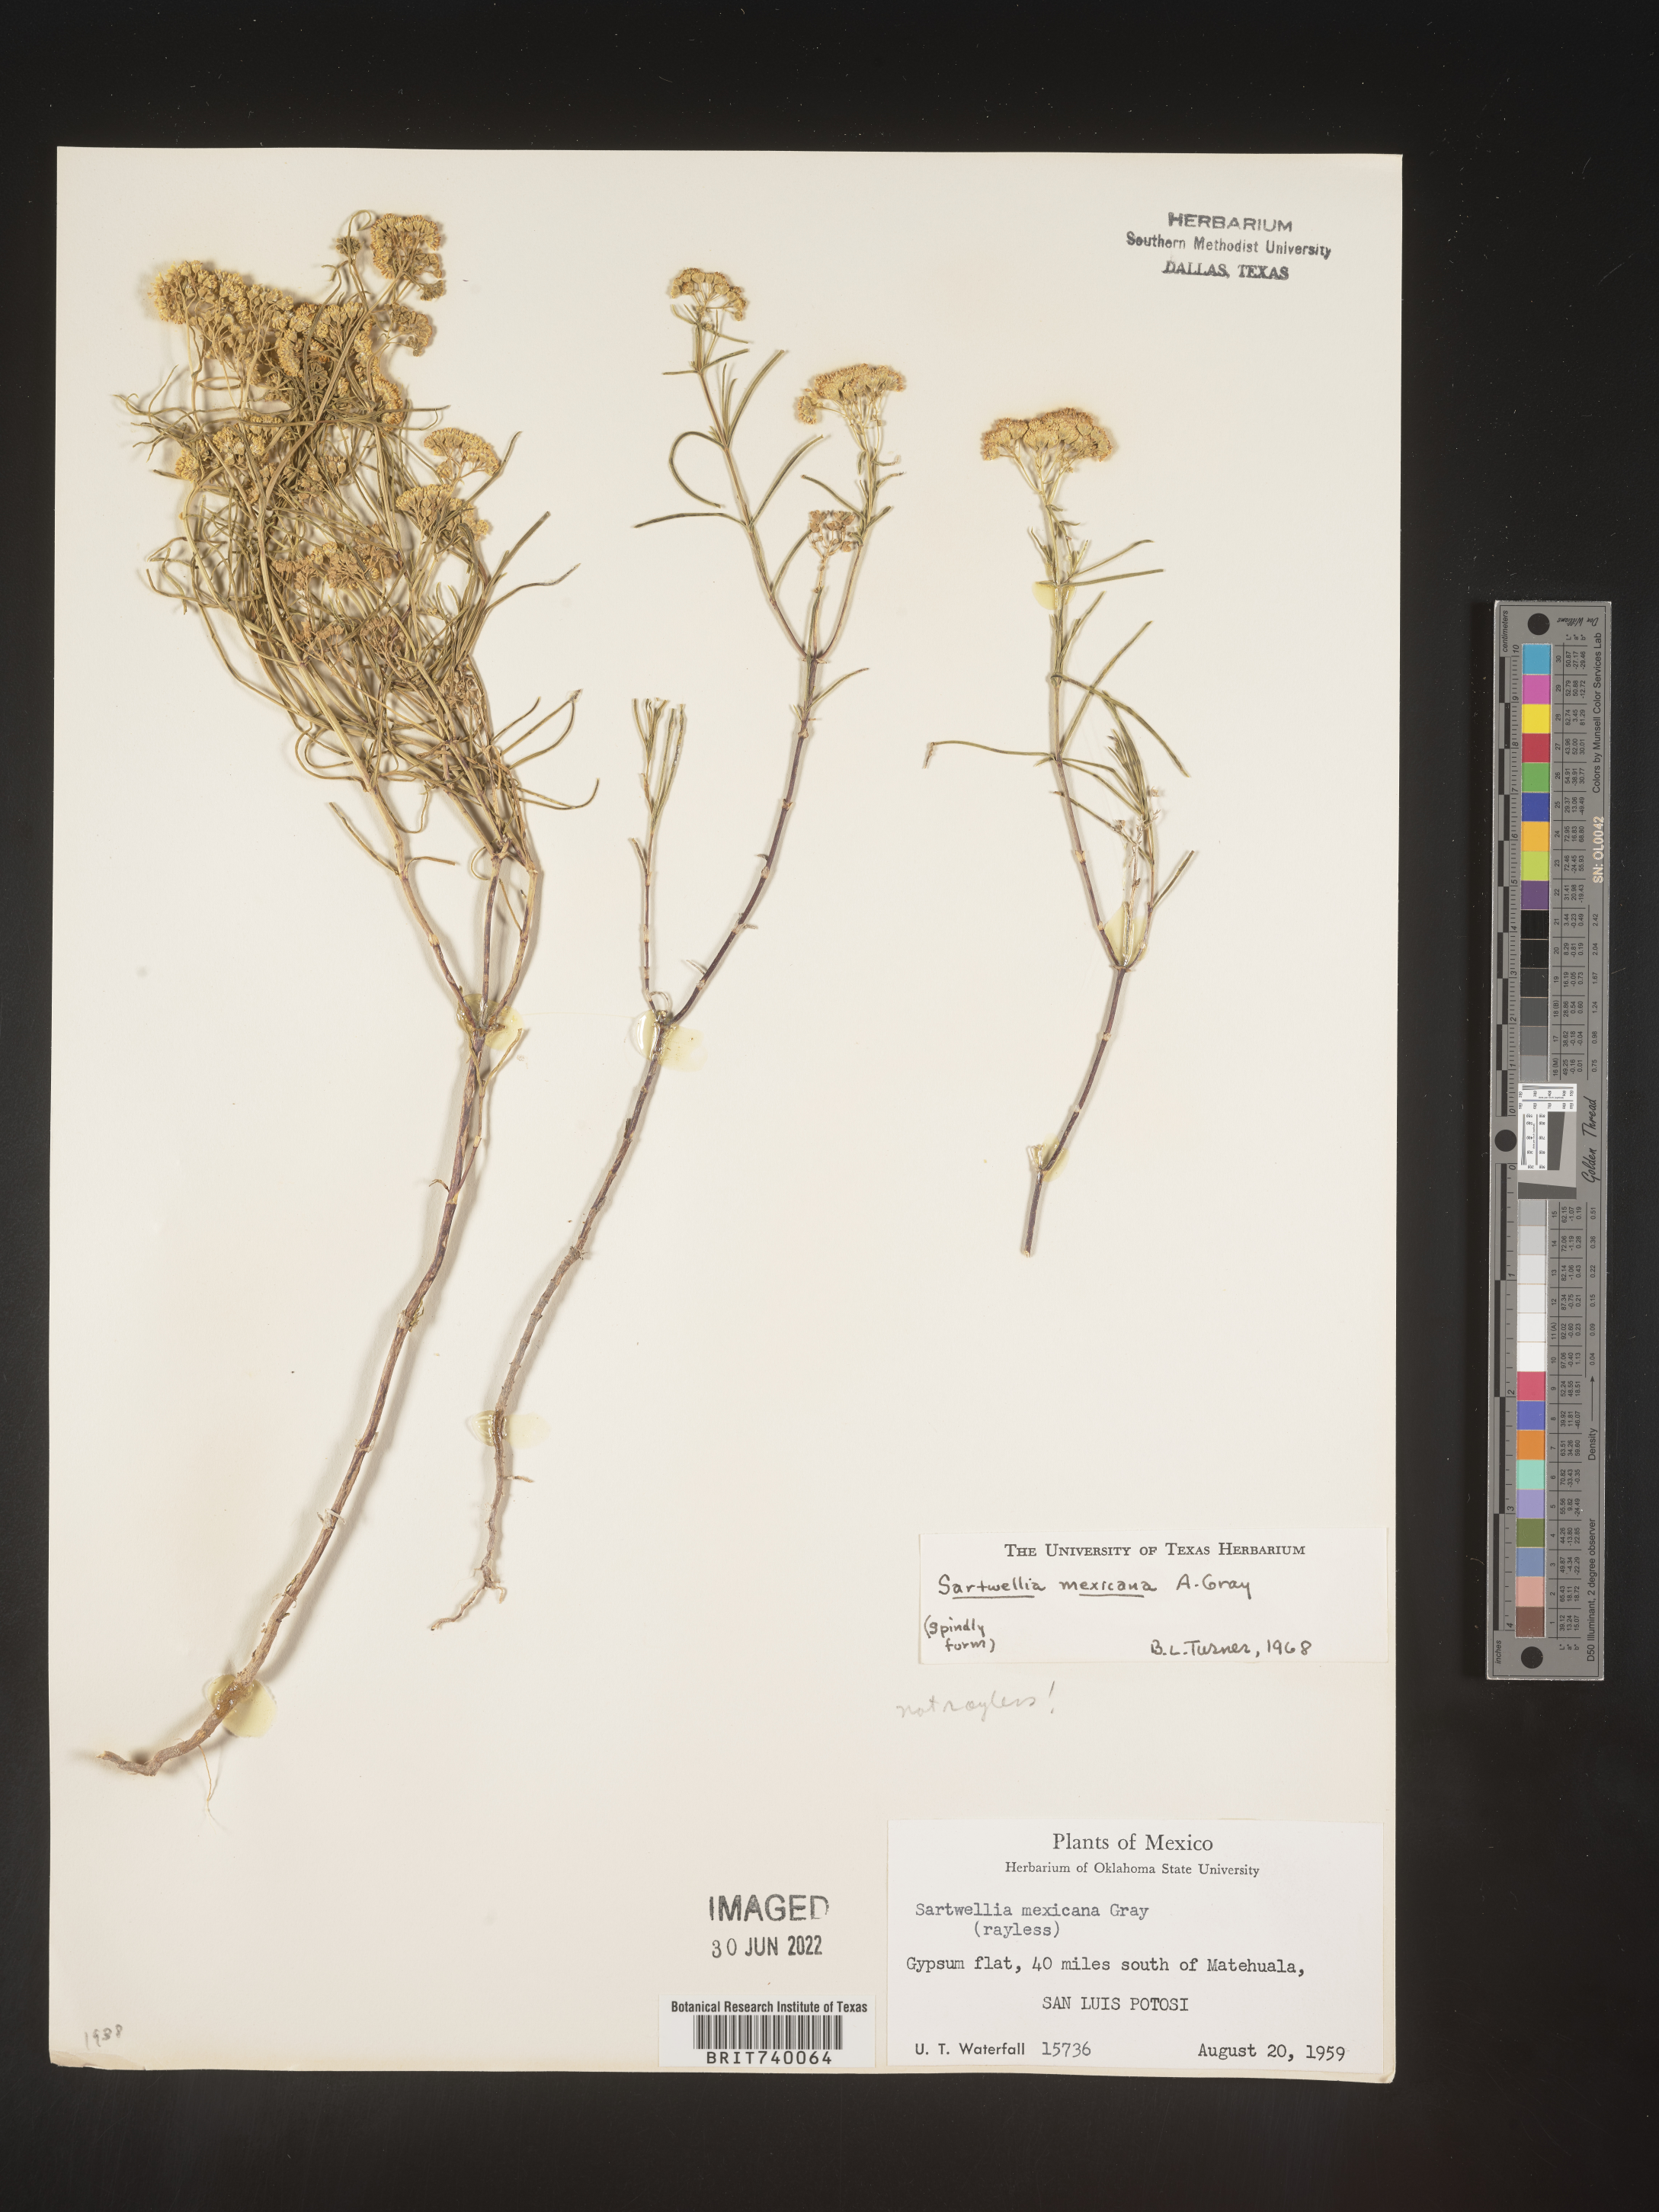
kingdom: Plantae
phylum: Tracheophyta
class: Magnoliopsida
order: Asterales
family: Asteraceae
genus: Sartwellia
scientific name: Sartwellia
